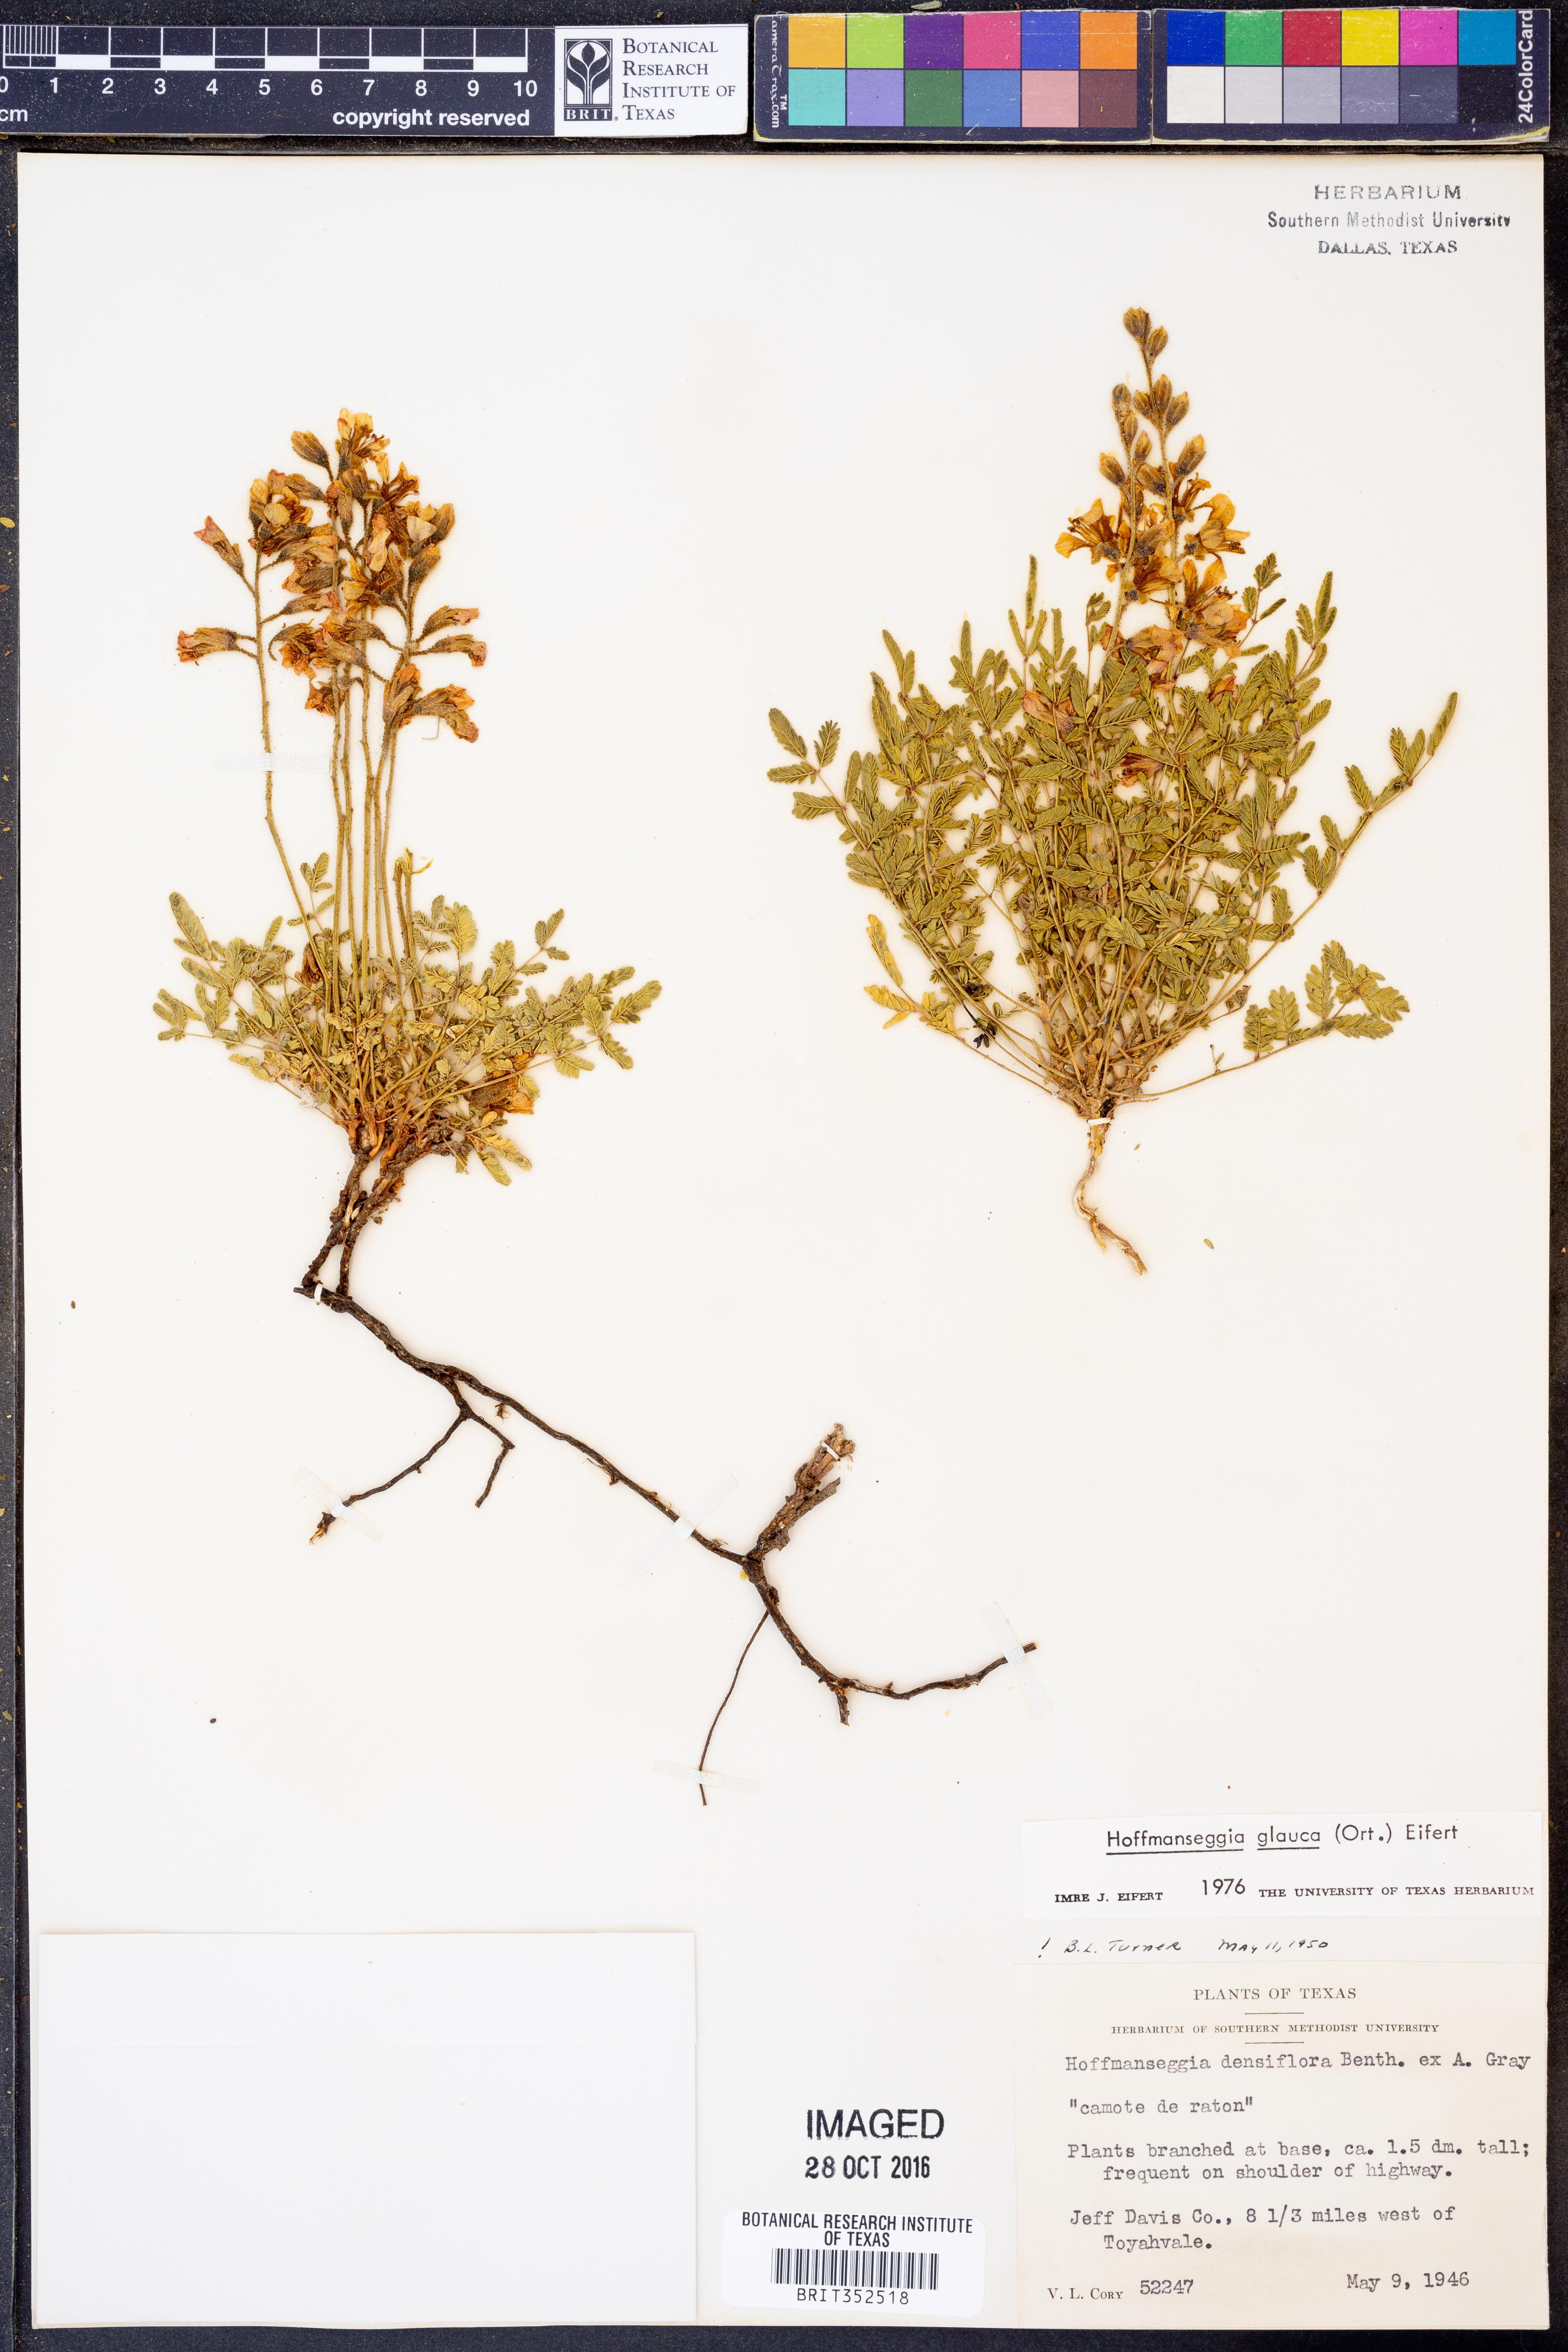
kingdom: Plantae
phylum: Tracheophyta
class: Magnoliopsida
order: Fabales
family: Fabaceae
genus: Hoffmannseggia
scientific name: Hoffmannseggia glauca
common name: Pignut
